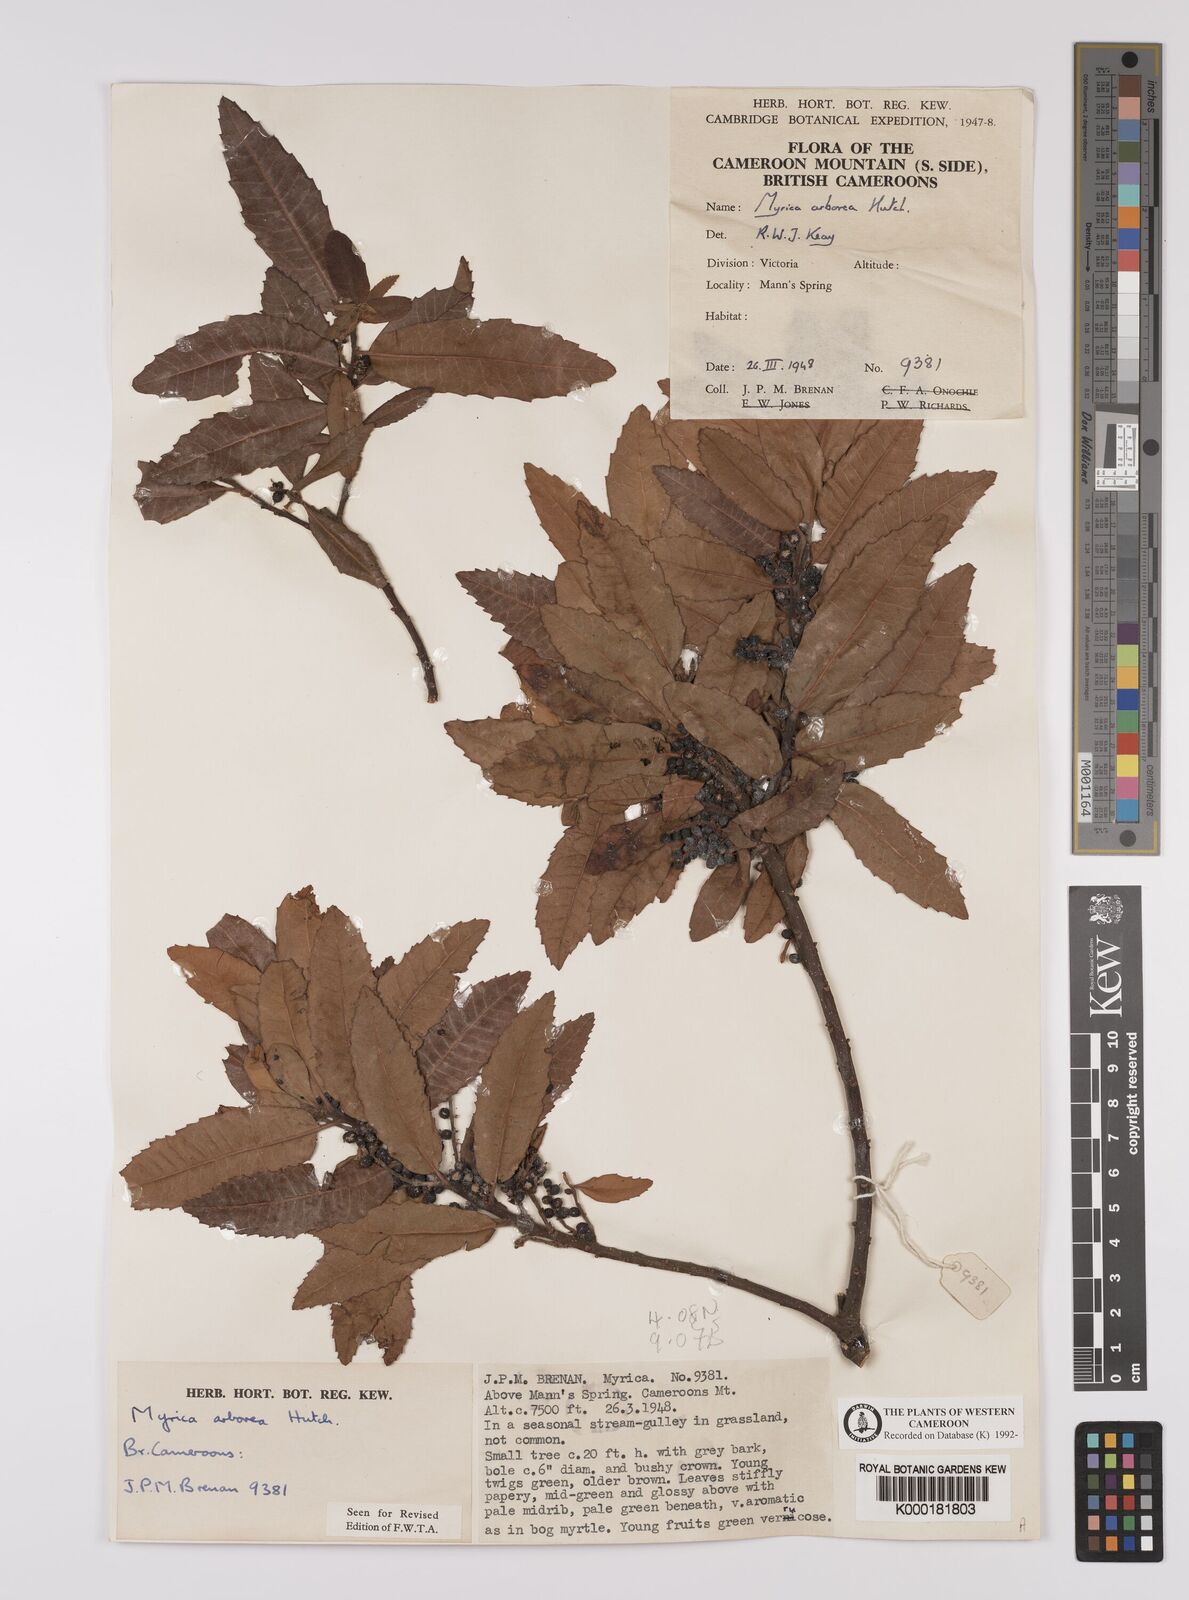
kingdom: Plantae
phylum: Tracheophyta
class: Magnoliopsida
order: Fagales
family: Myricaceae
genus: Morella
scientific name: Morella arborea
